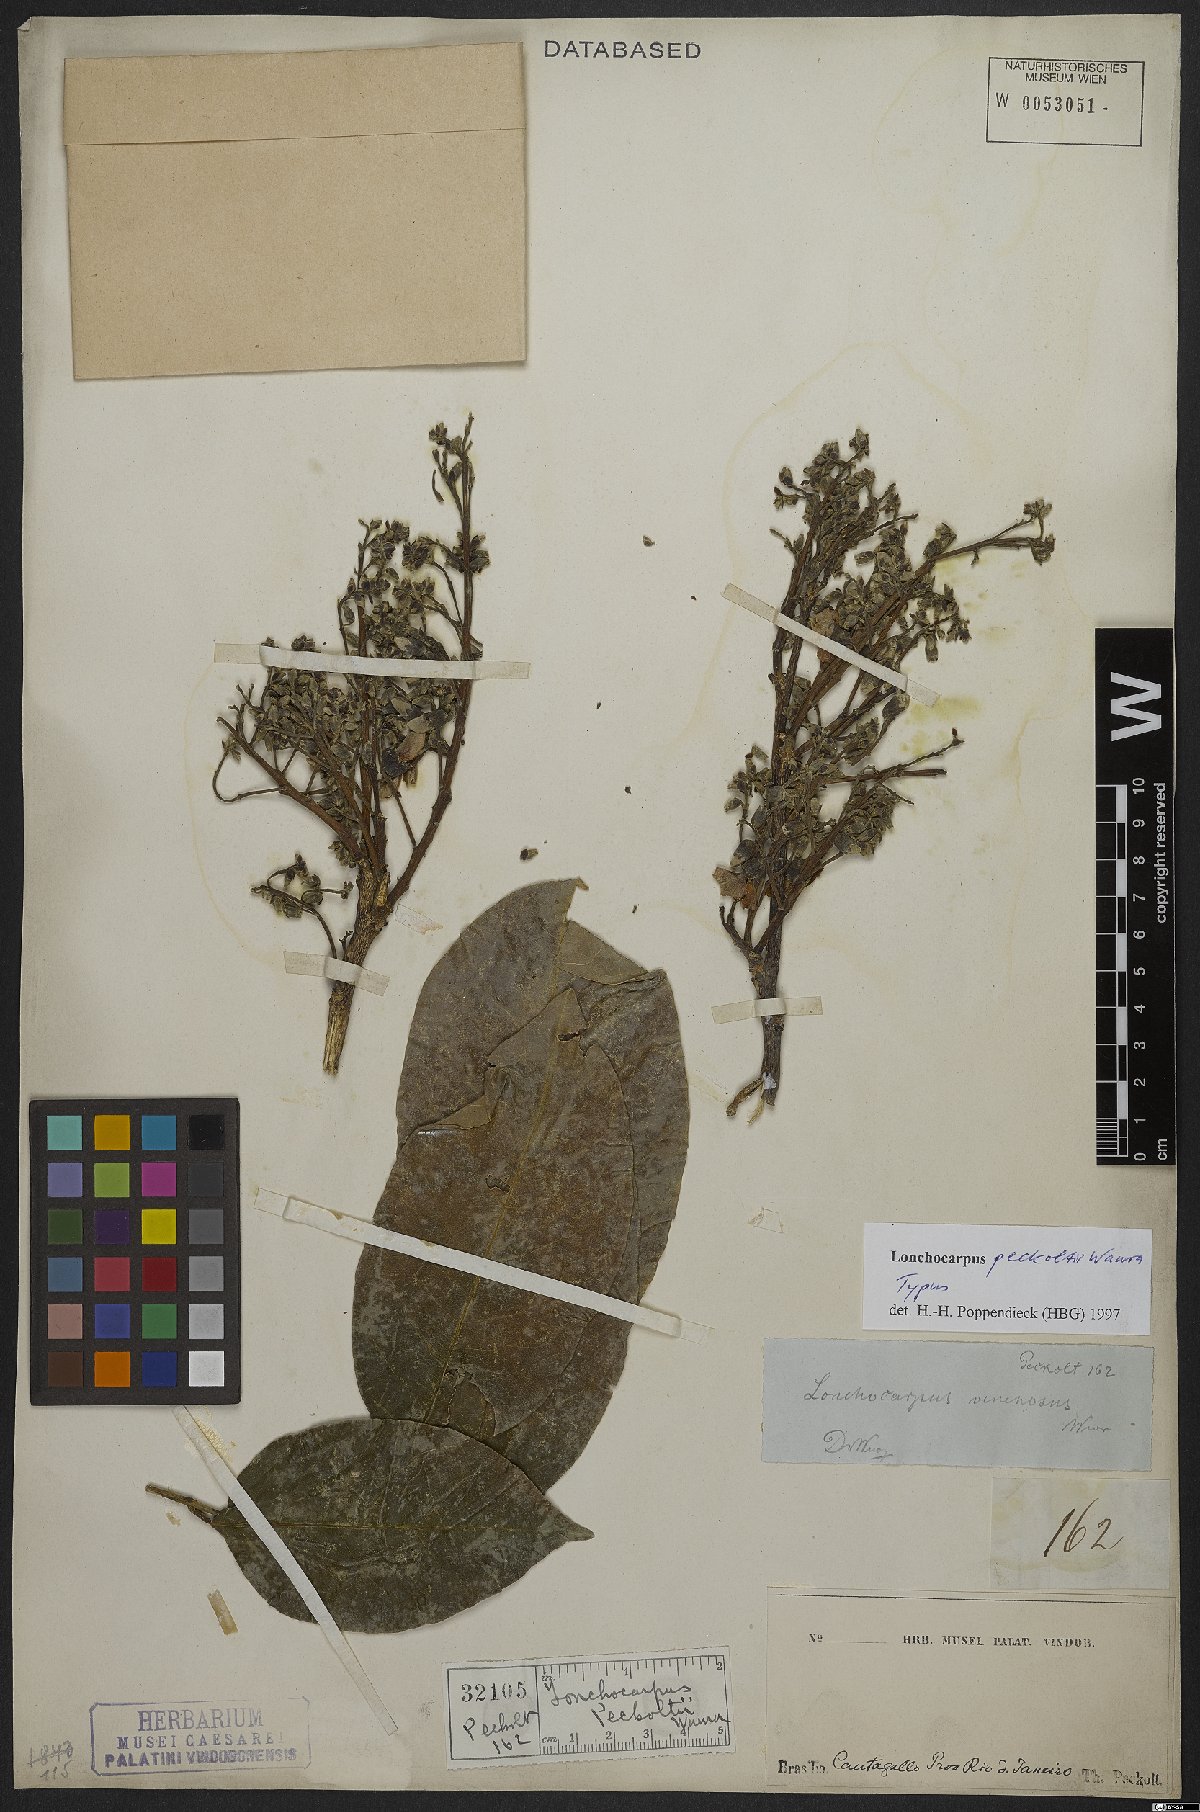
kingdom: Plantae
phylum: Tracheophyta
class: Magnoliopsida
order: Fabales
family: Fabaceae
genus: Dahlstedtia
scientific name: Dahlstedtia peckoltii
